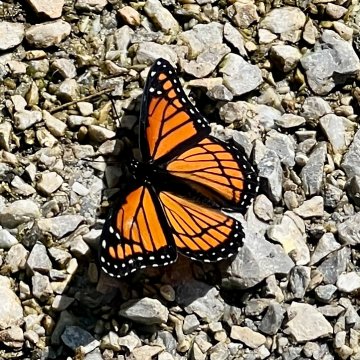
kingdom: Animalia
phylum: Arthropoda
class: Insecta
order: Lepidoptera
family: Nymphalidae
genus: Limenitis
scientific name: Limenitis archippus
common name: Viceroy
